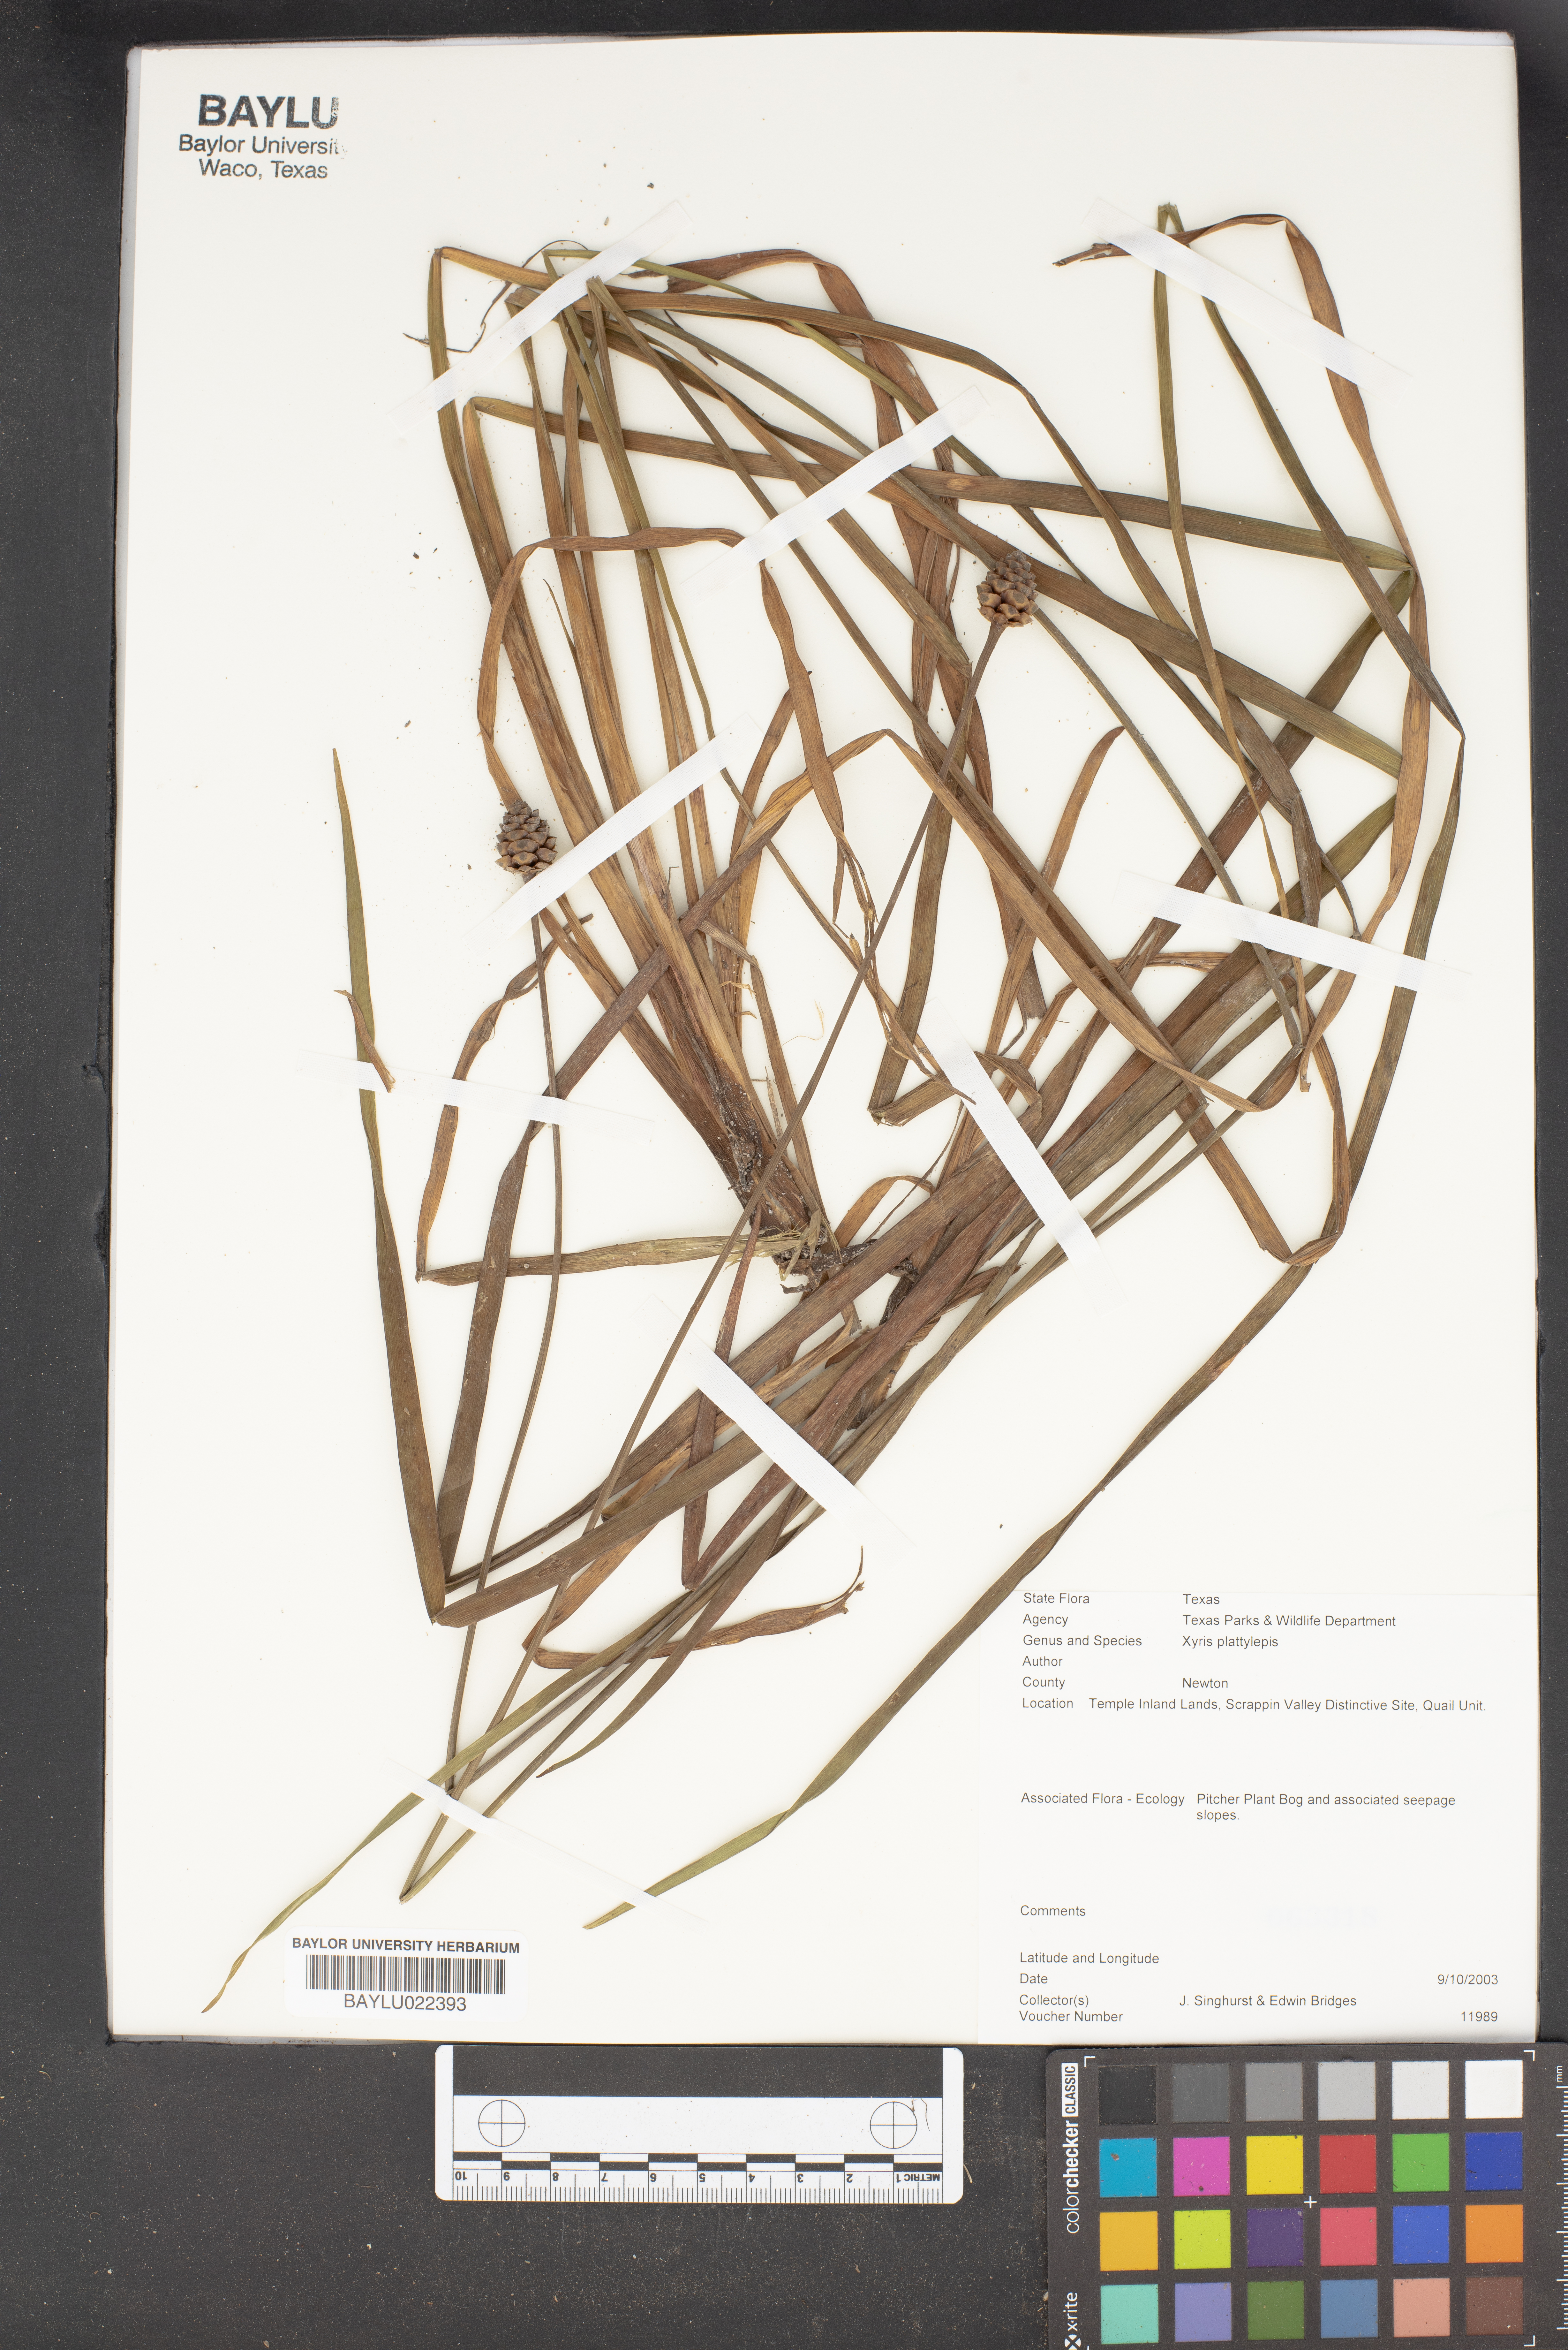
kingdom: Plantae
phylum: Tracheophyta
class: Liliopsida
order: Poales
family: Xyridaceae
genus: Xyris
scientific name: Xyris platylepis
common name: Tall yelloweyed grass
